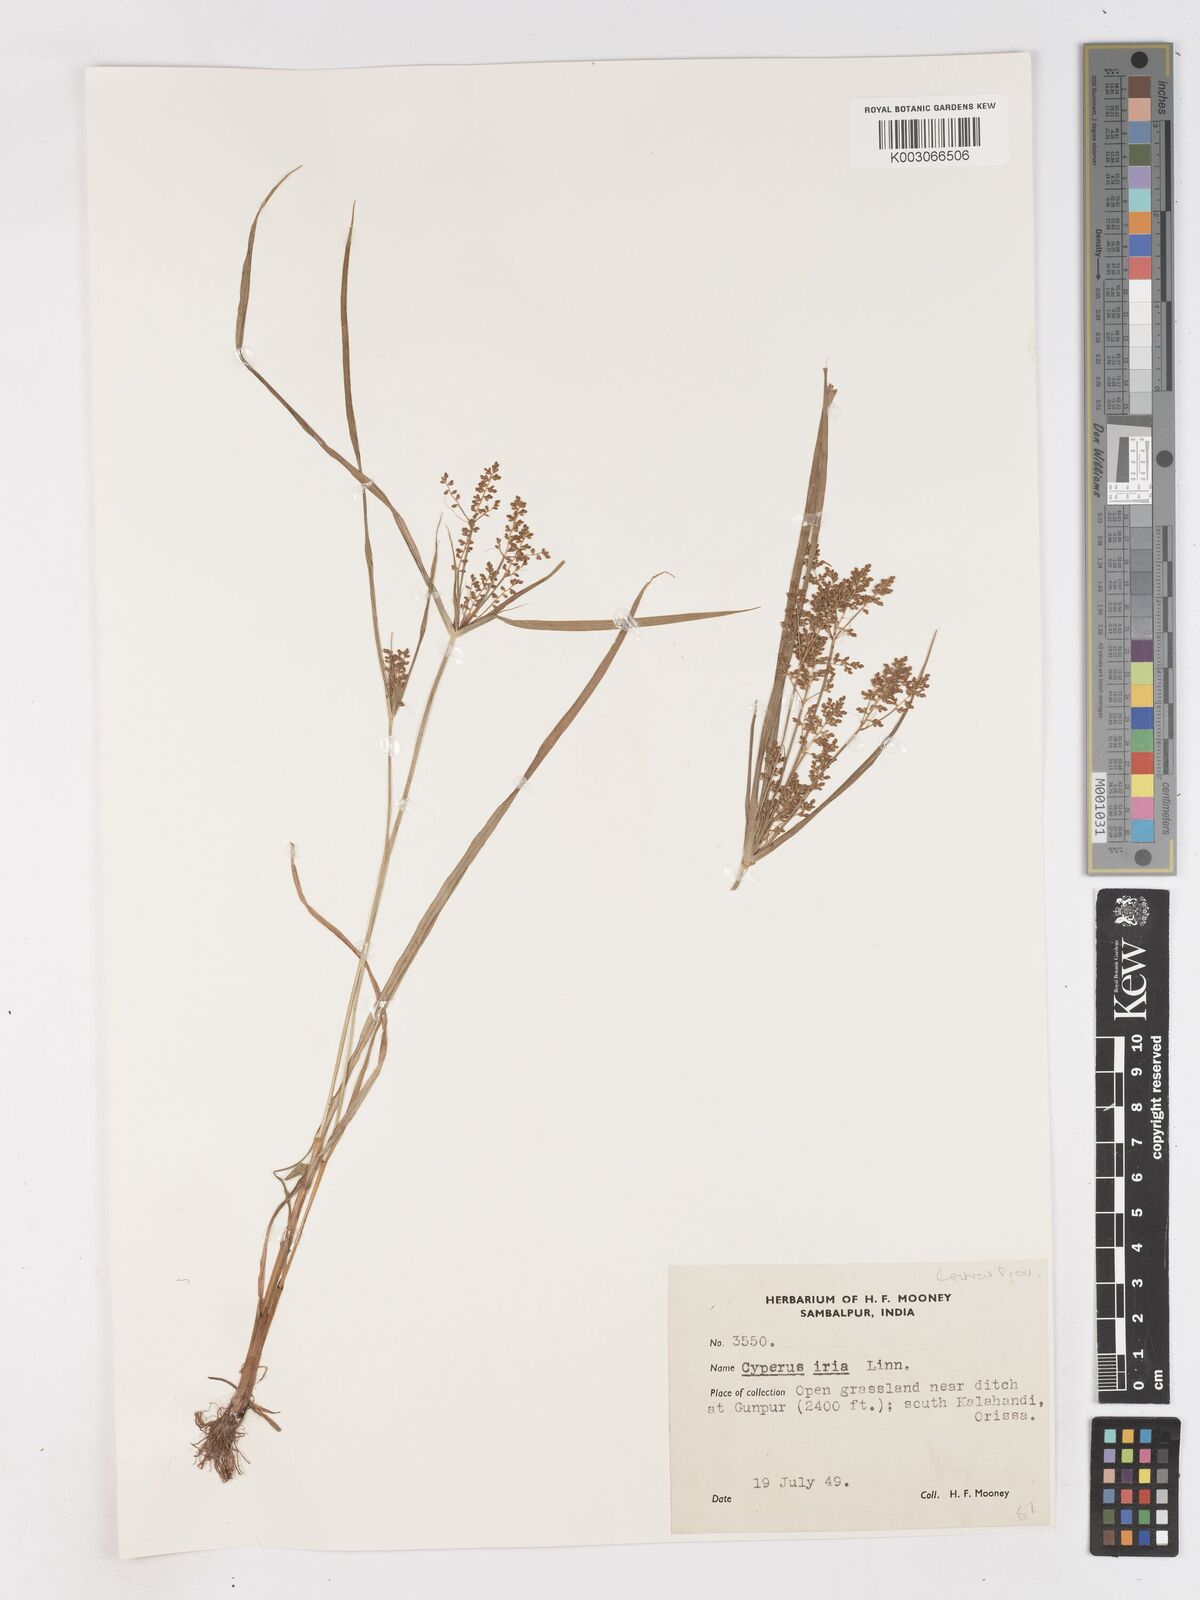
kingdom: Plantae
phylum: Tracheophyta
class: Liliopsida
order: Poales
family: Cyperaceae
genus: Cyperus
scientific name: Cyperus iria
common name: Ricefield flatsedge
